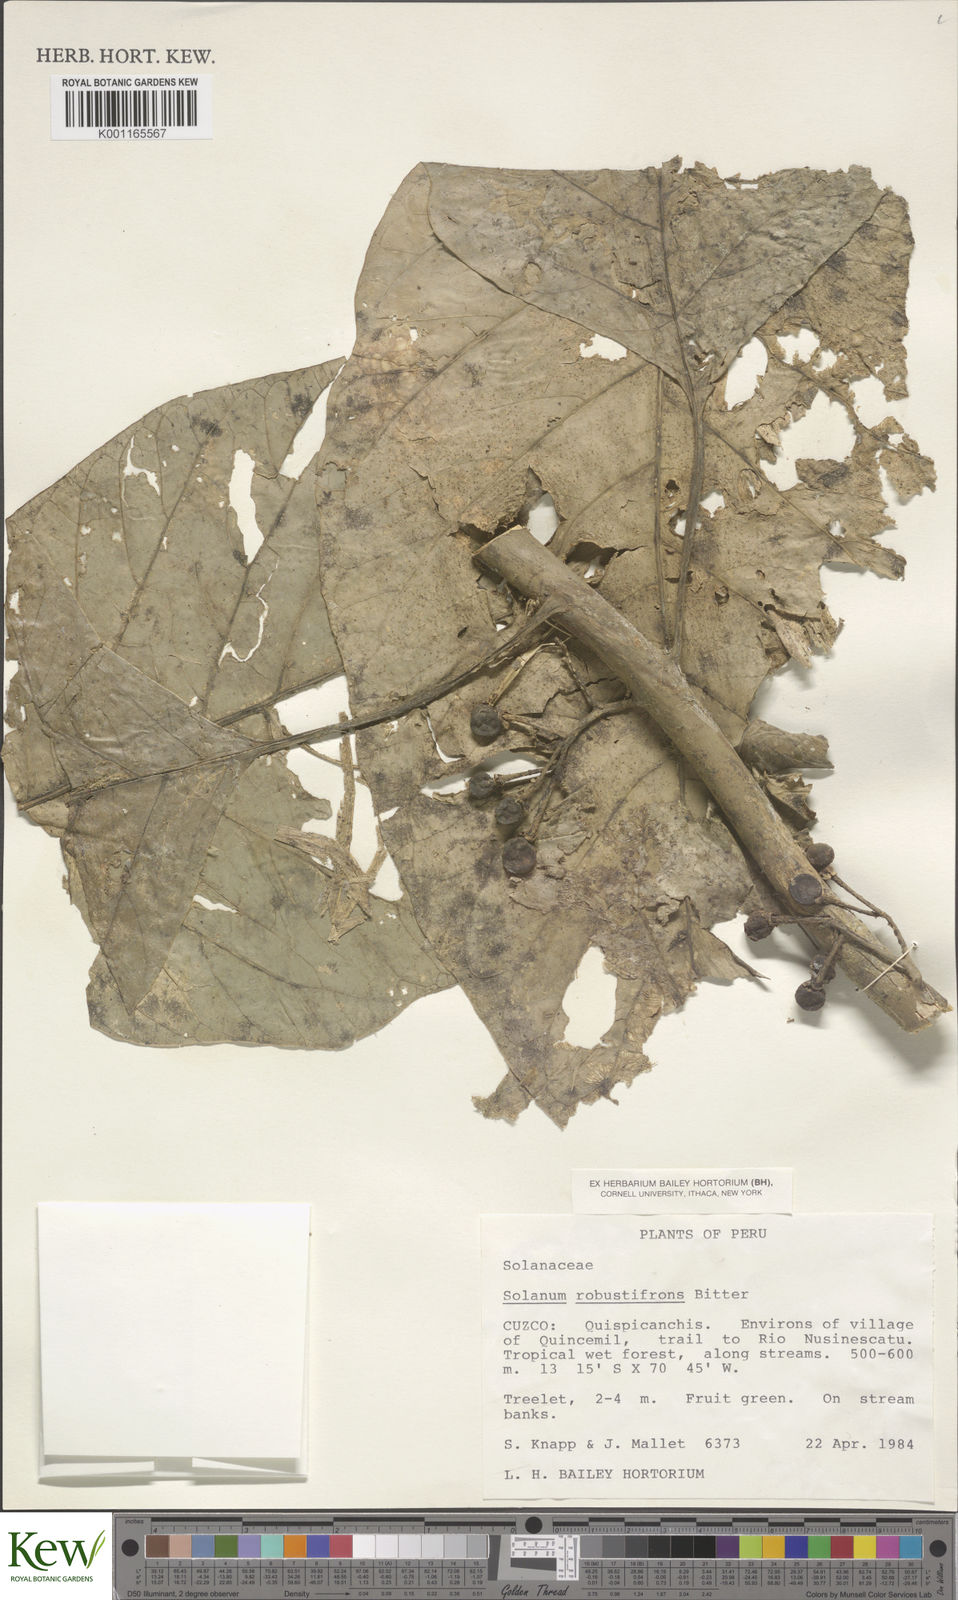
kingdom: Plantae
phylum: Tracheophyta
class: Magnoliopsida
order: Solanales
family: Solanaceae
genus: Solanum
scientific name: Solanum robustifrons
